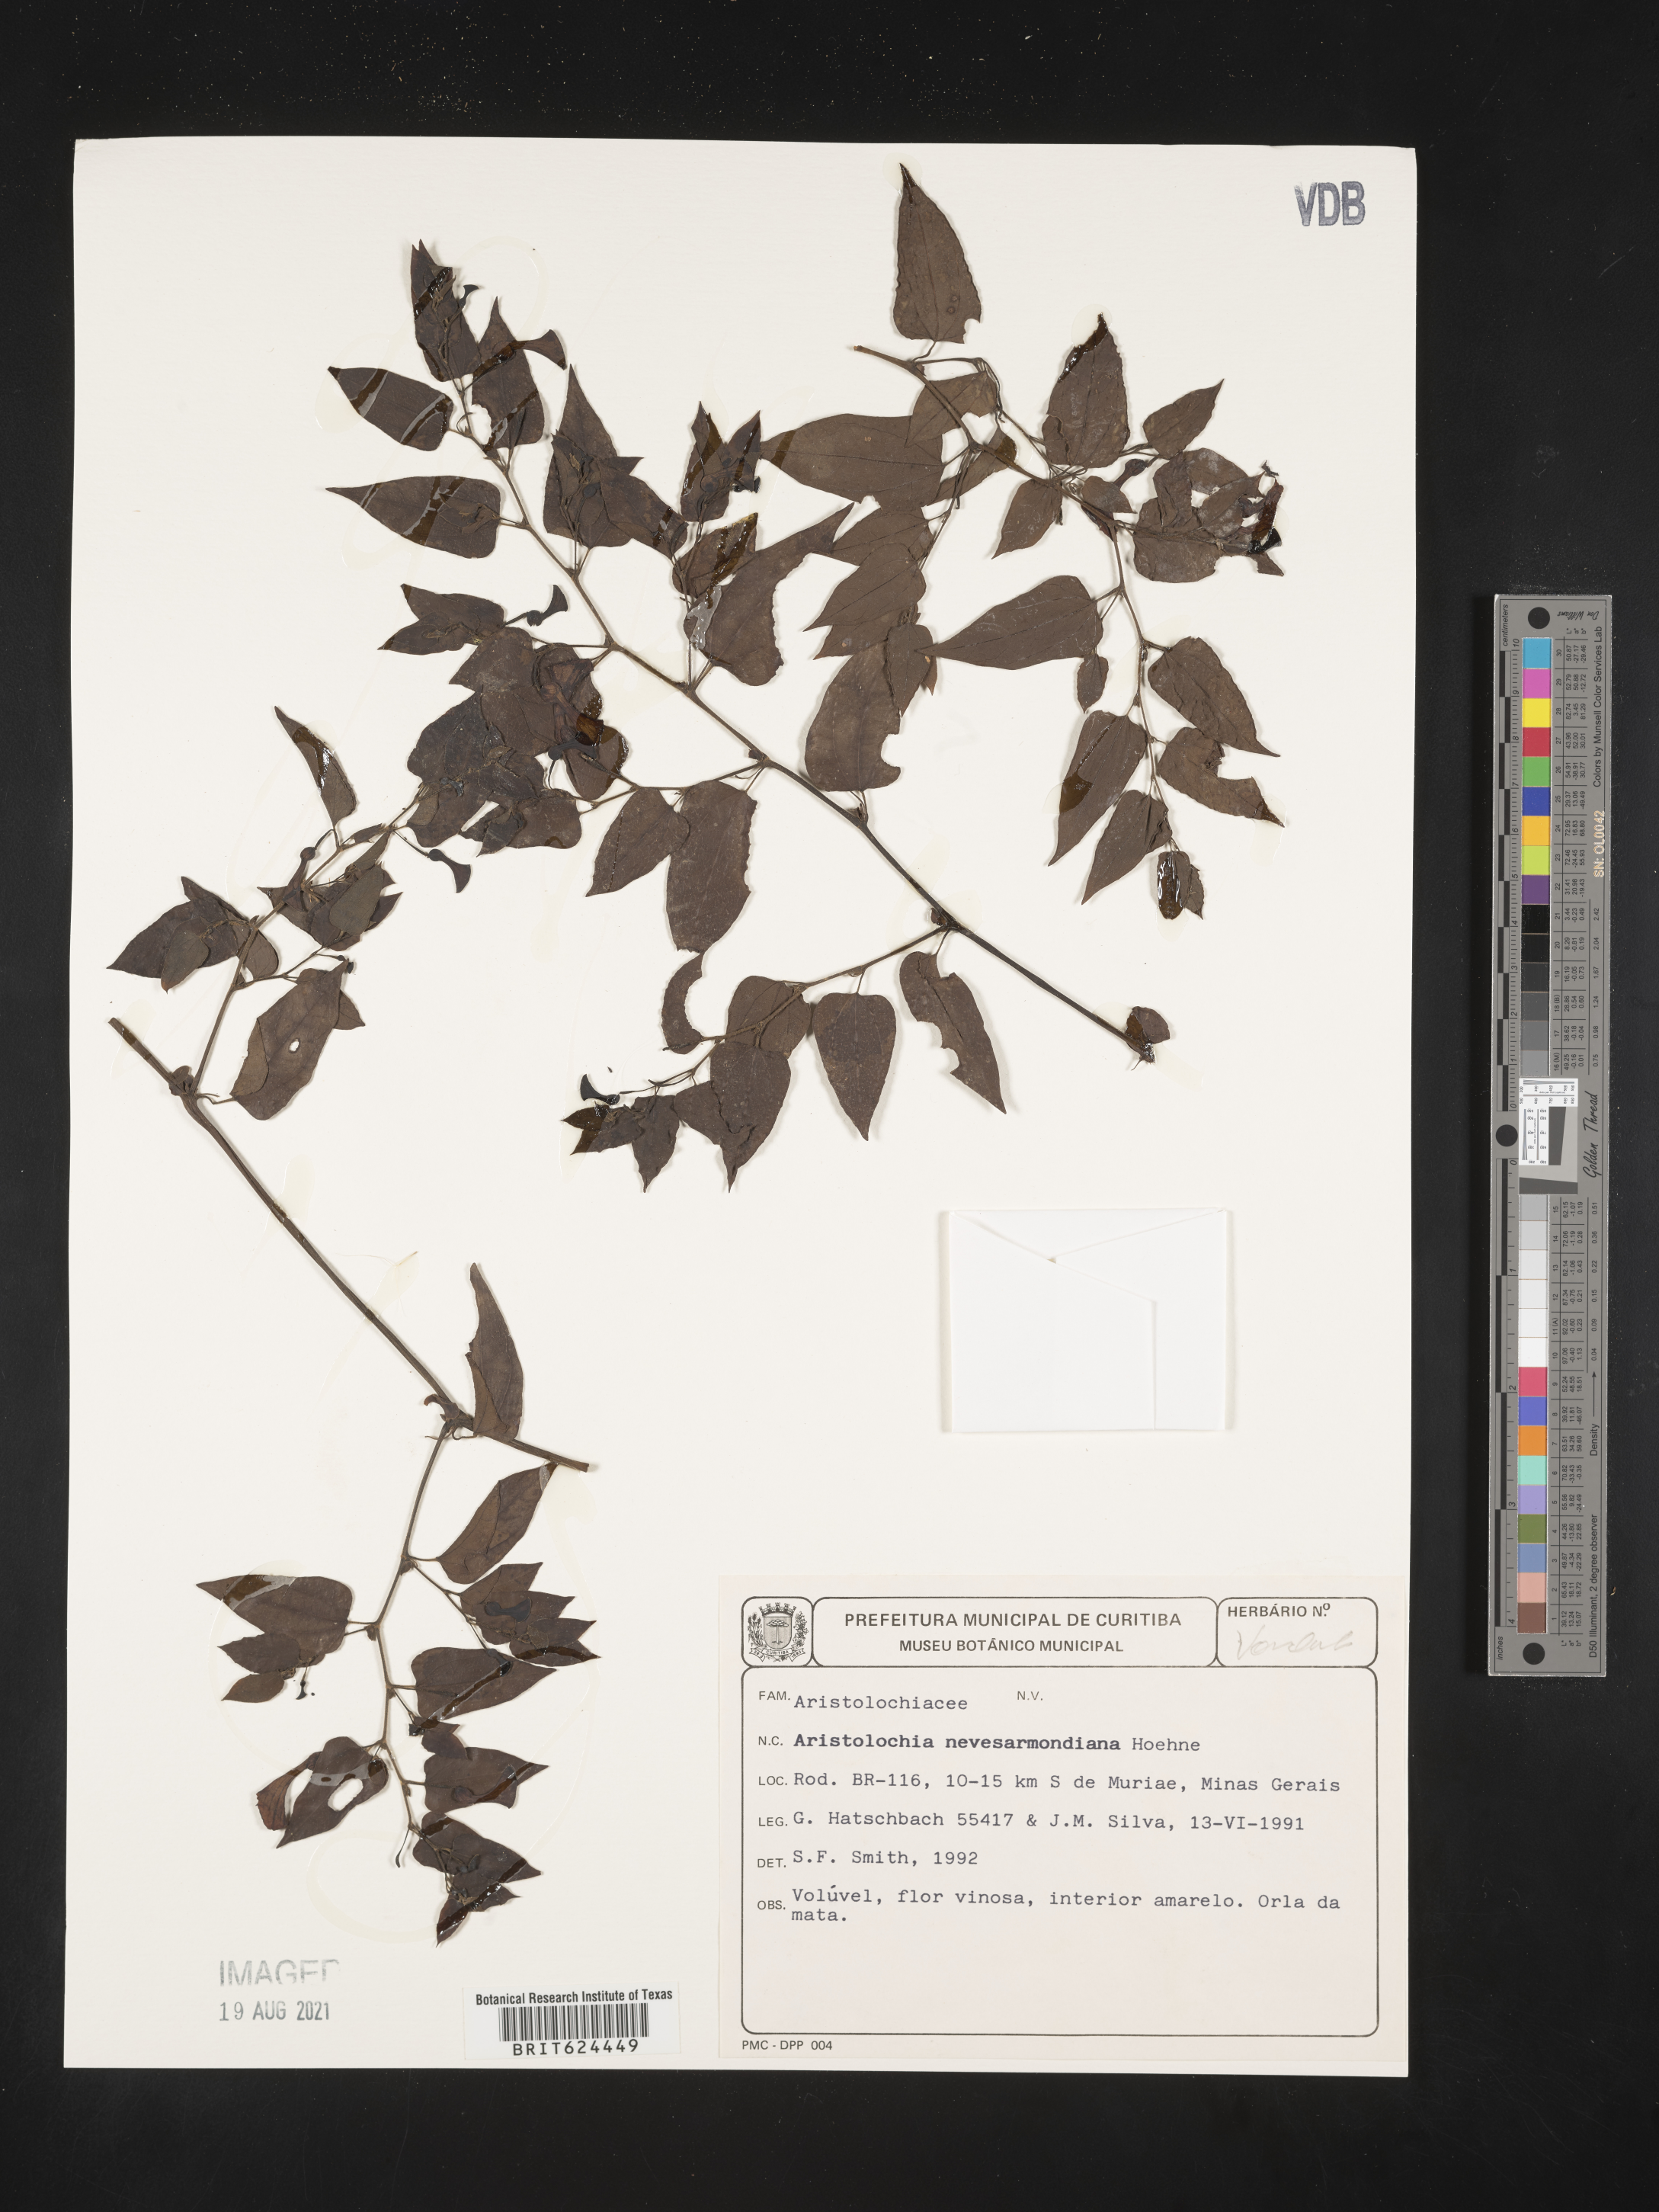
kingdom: Plantae
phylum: Tracheophyta
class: Magnoliopsida
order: Piperales
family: Aristolochiaceae
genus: Aristolochia
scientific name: Aristolochia nevesarmondiana
